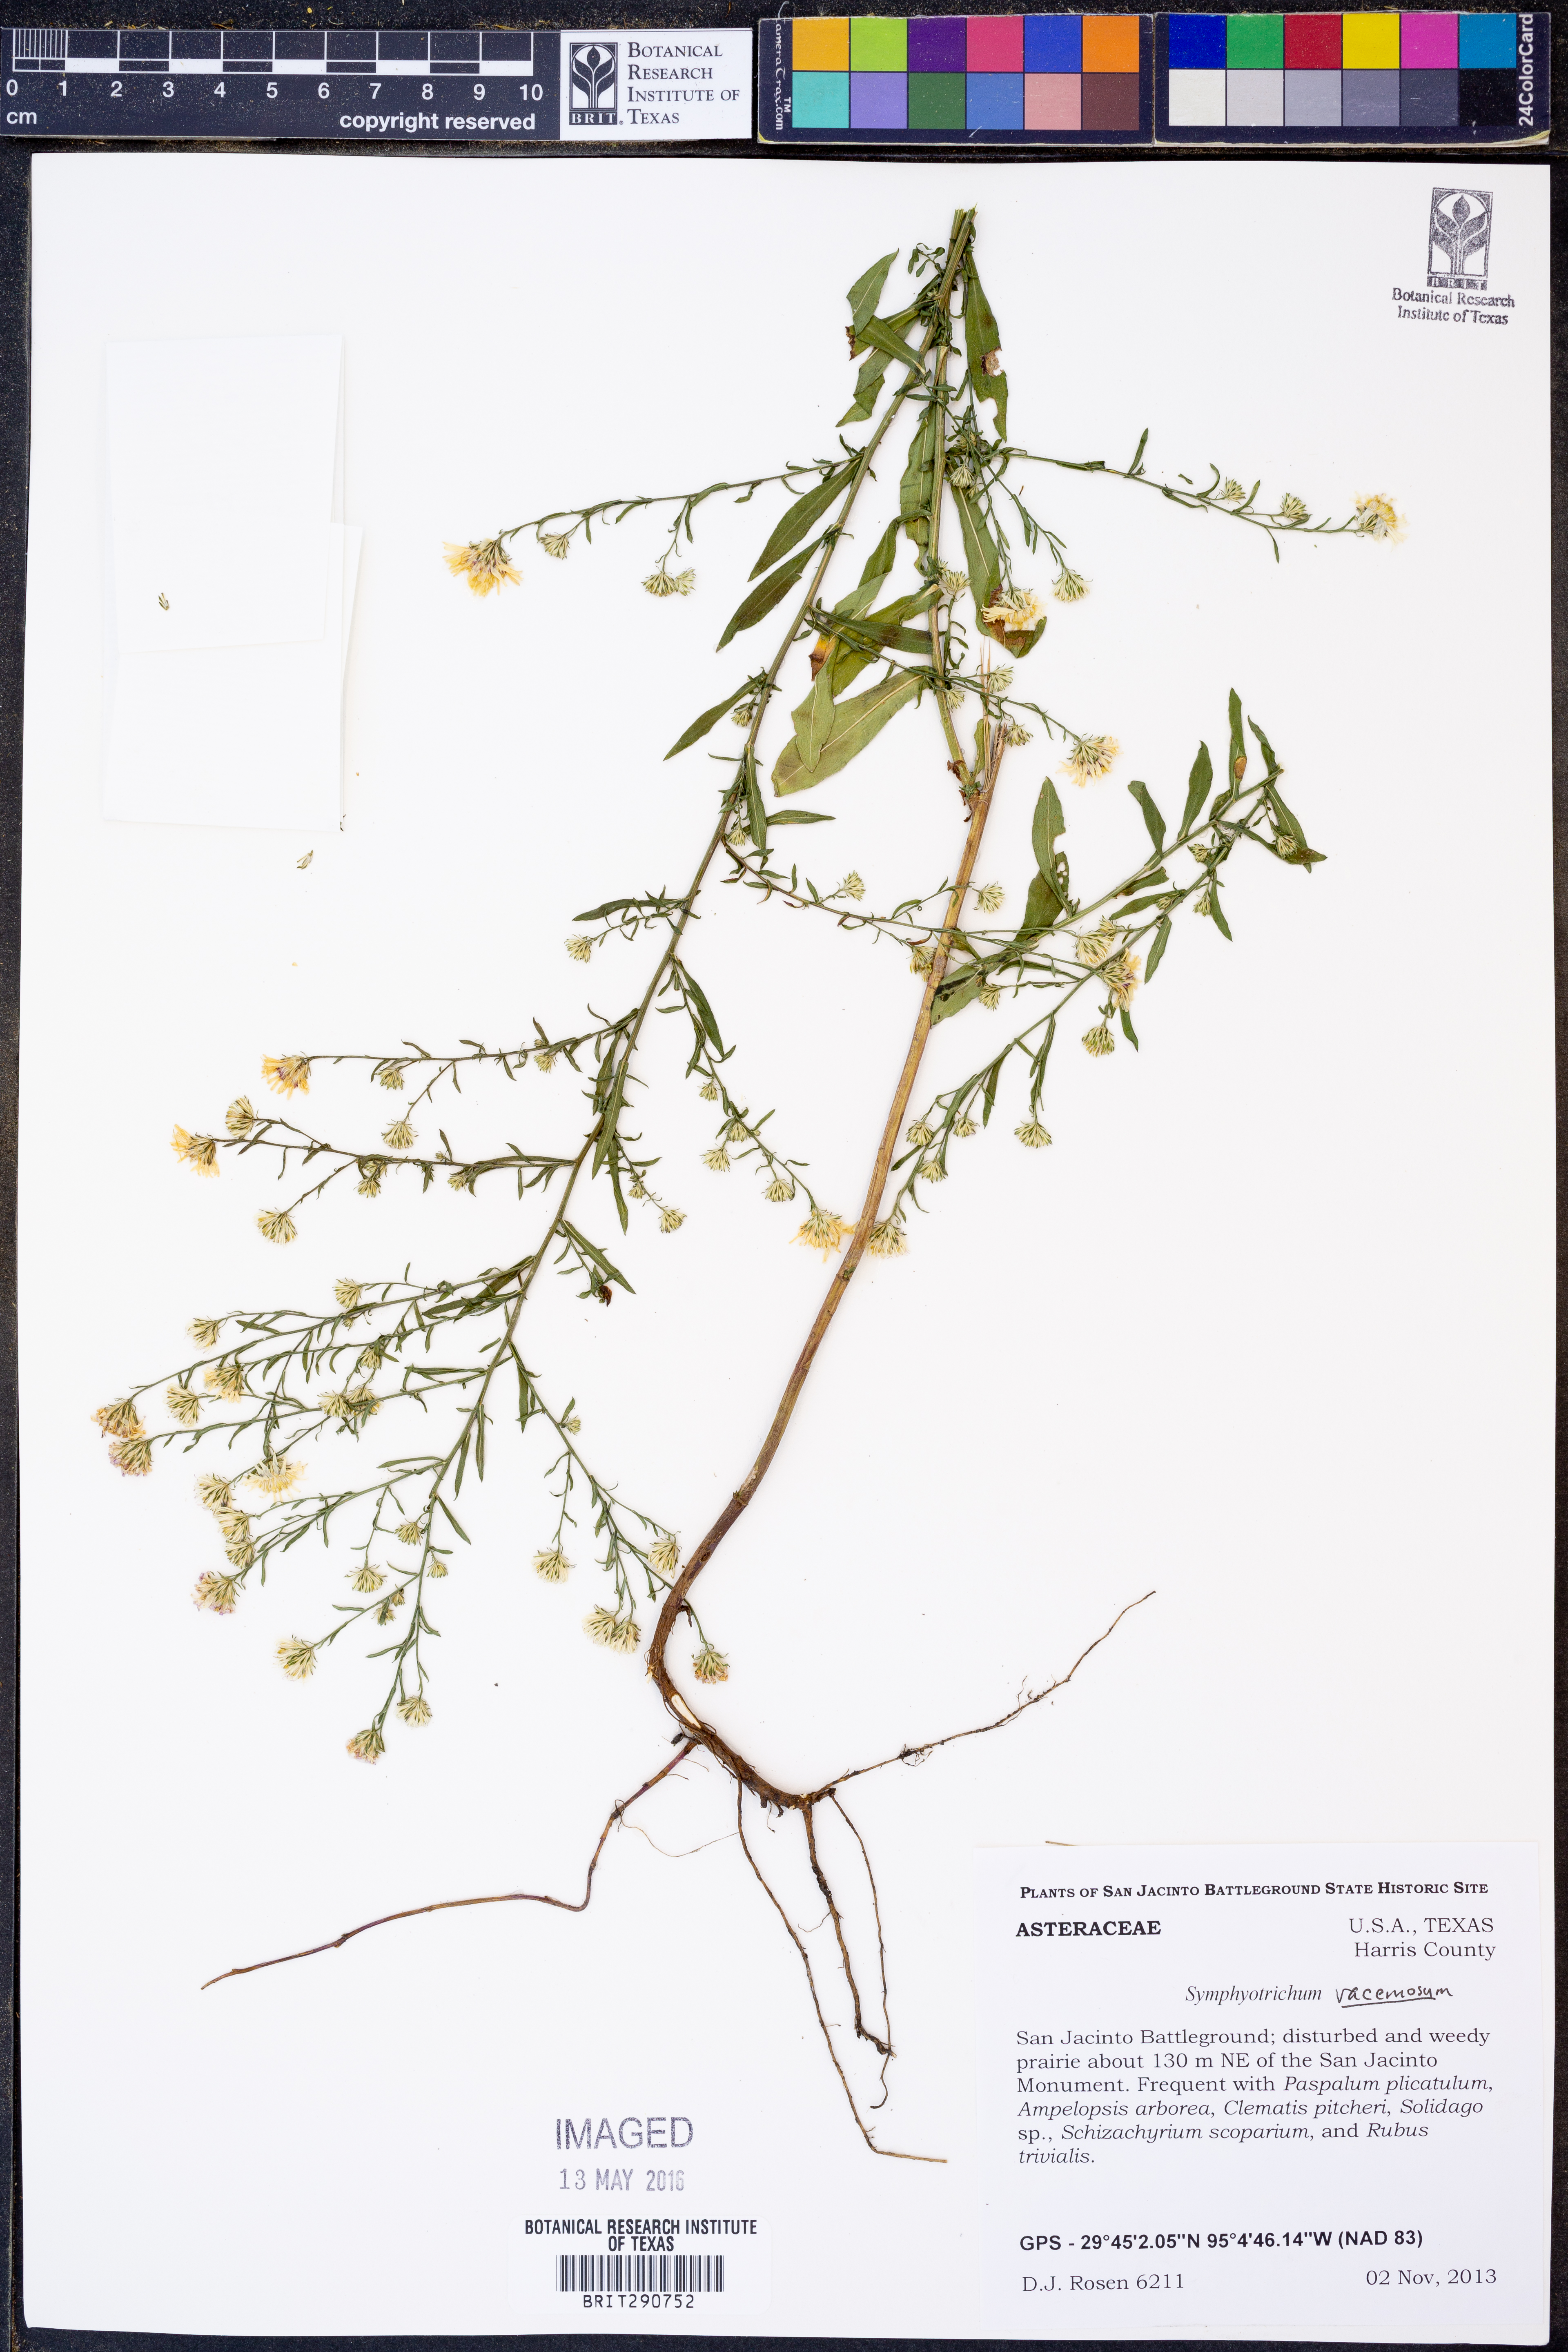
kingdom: Plantae
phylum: Tracheophyta
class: Magnoliopsida
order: Asterales
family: Asteraceae
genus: Symphyotrichum
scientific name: Symphyotrichum racemosum
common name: Small white aster
